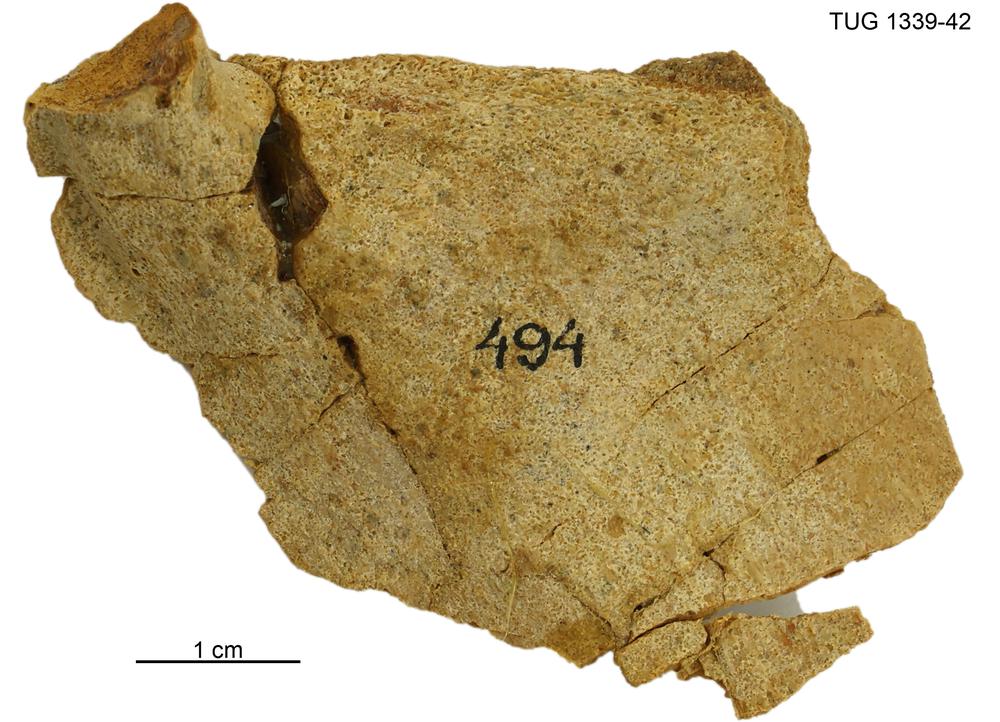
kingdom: Animalia
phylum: Chordata
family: Homostiidae
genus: Homostius
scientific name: Homostius
